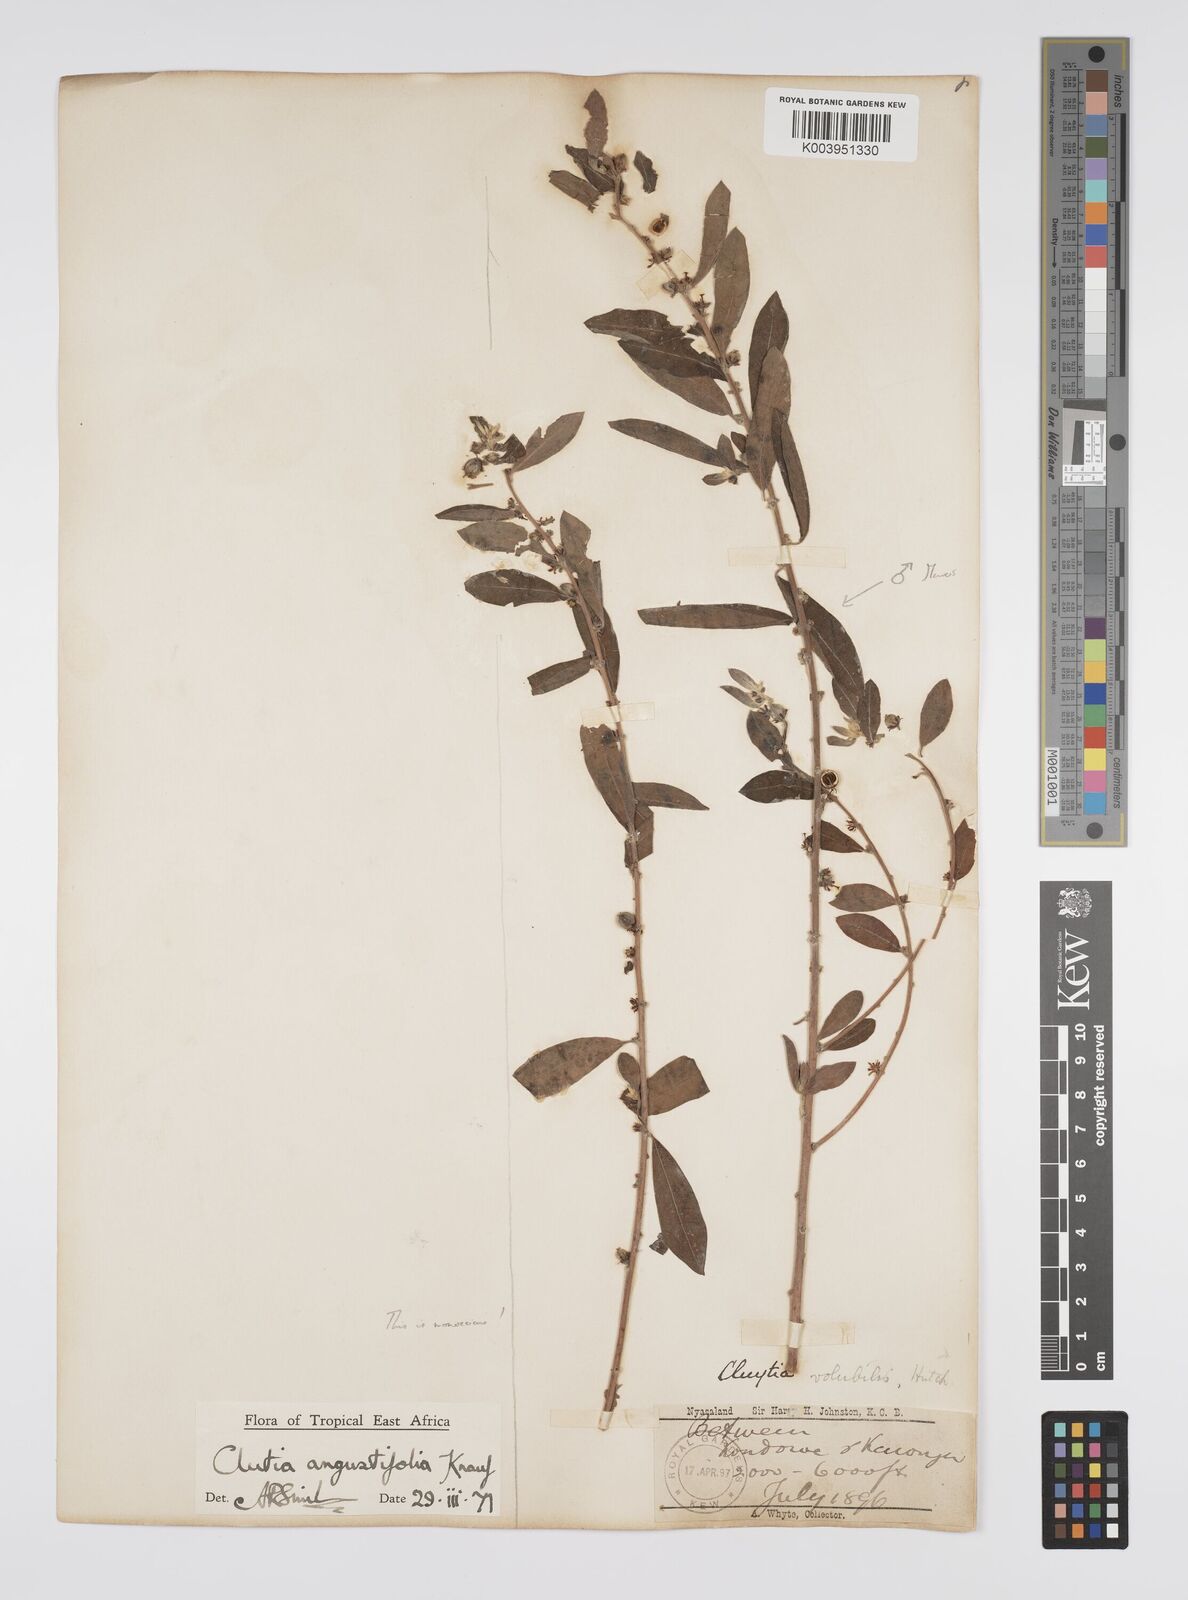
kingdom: Plantae
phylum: Tracheophyta
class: Magnoliopsida
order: Malpighiales
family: Peraceae
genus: Clutia
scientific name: Clutia angustifolia
